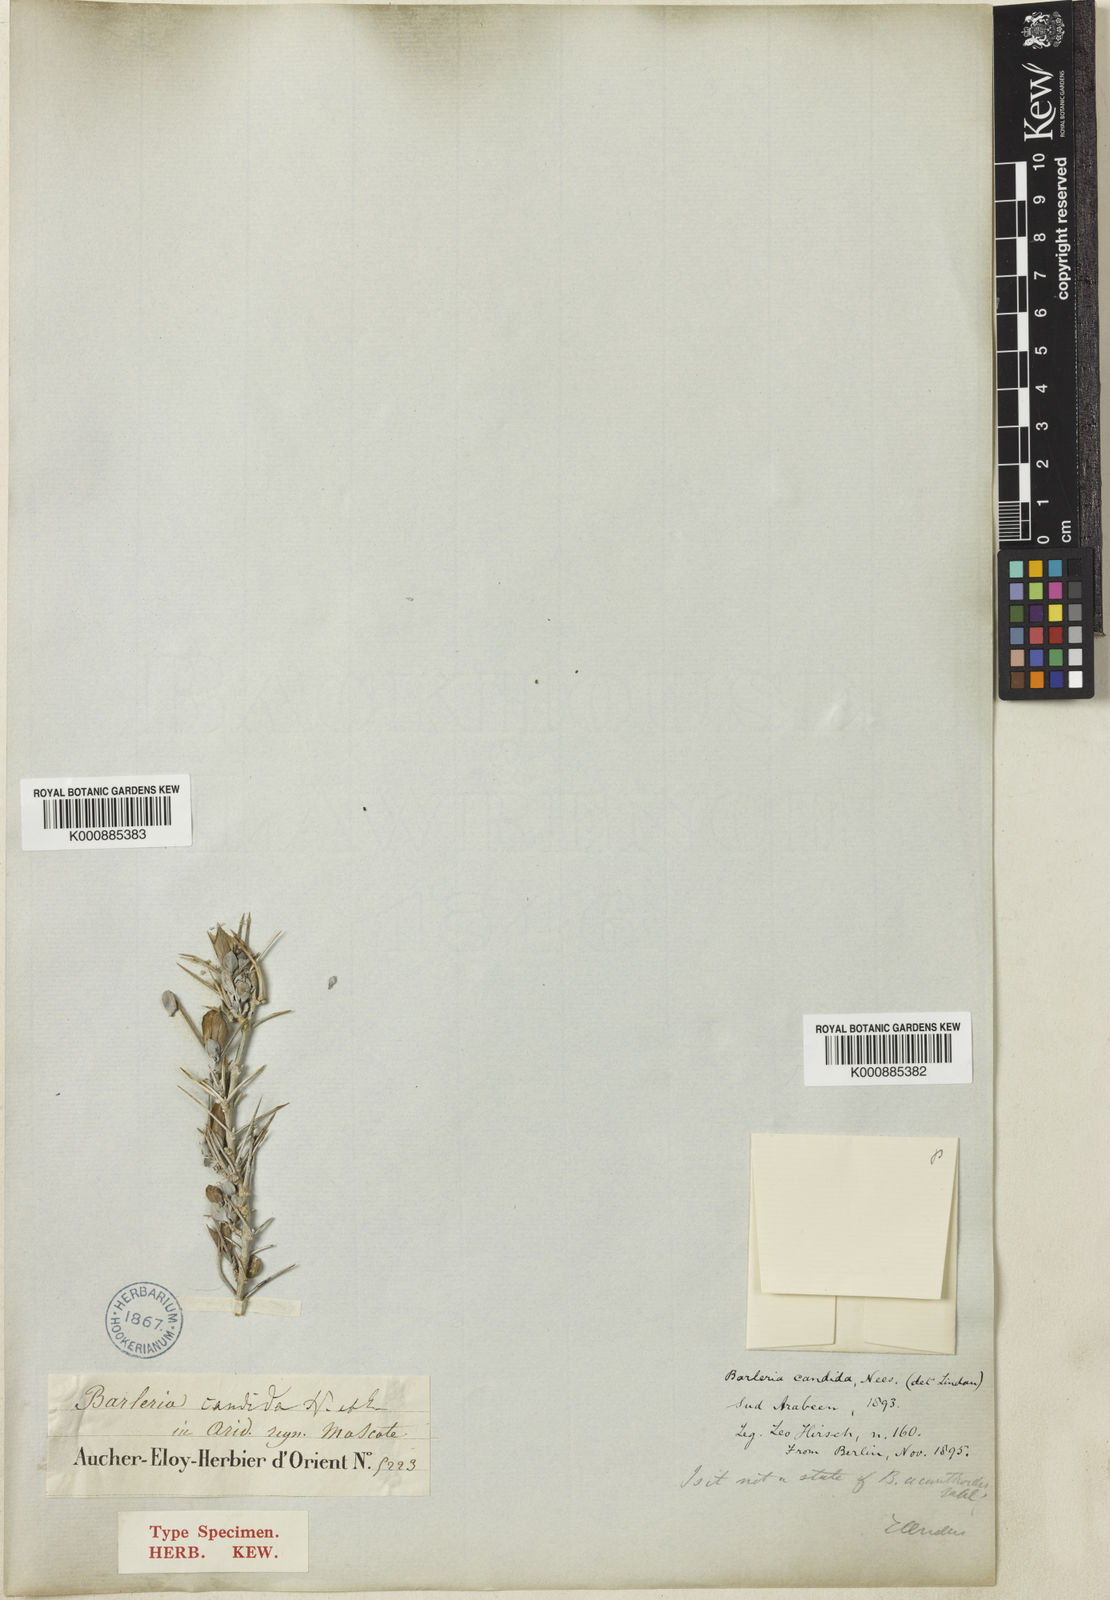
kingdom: Plantae
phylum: Tracheophyta
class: Magnoliopsida
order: Lamiales
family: Acanthaceae
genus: Barleria
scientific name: Barleria candida
